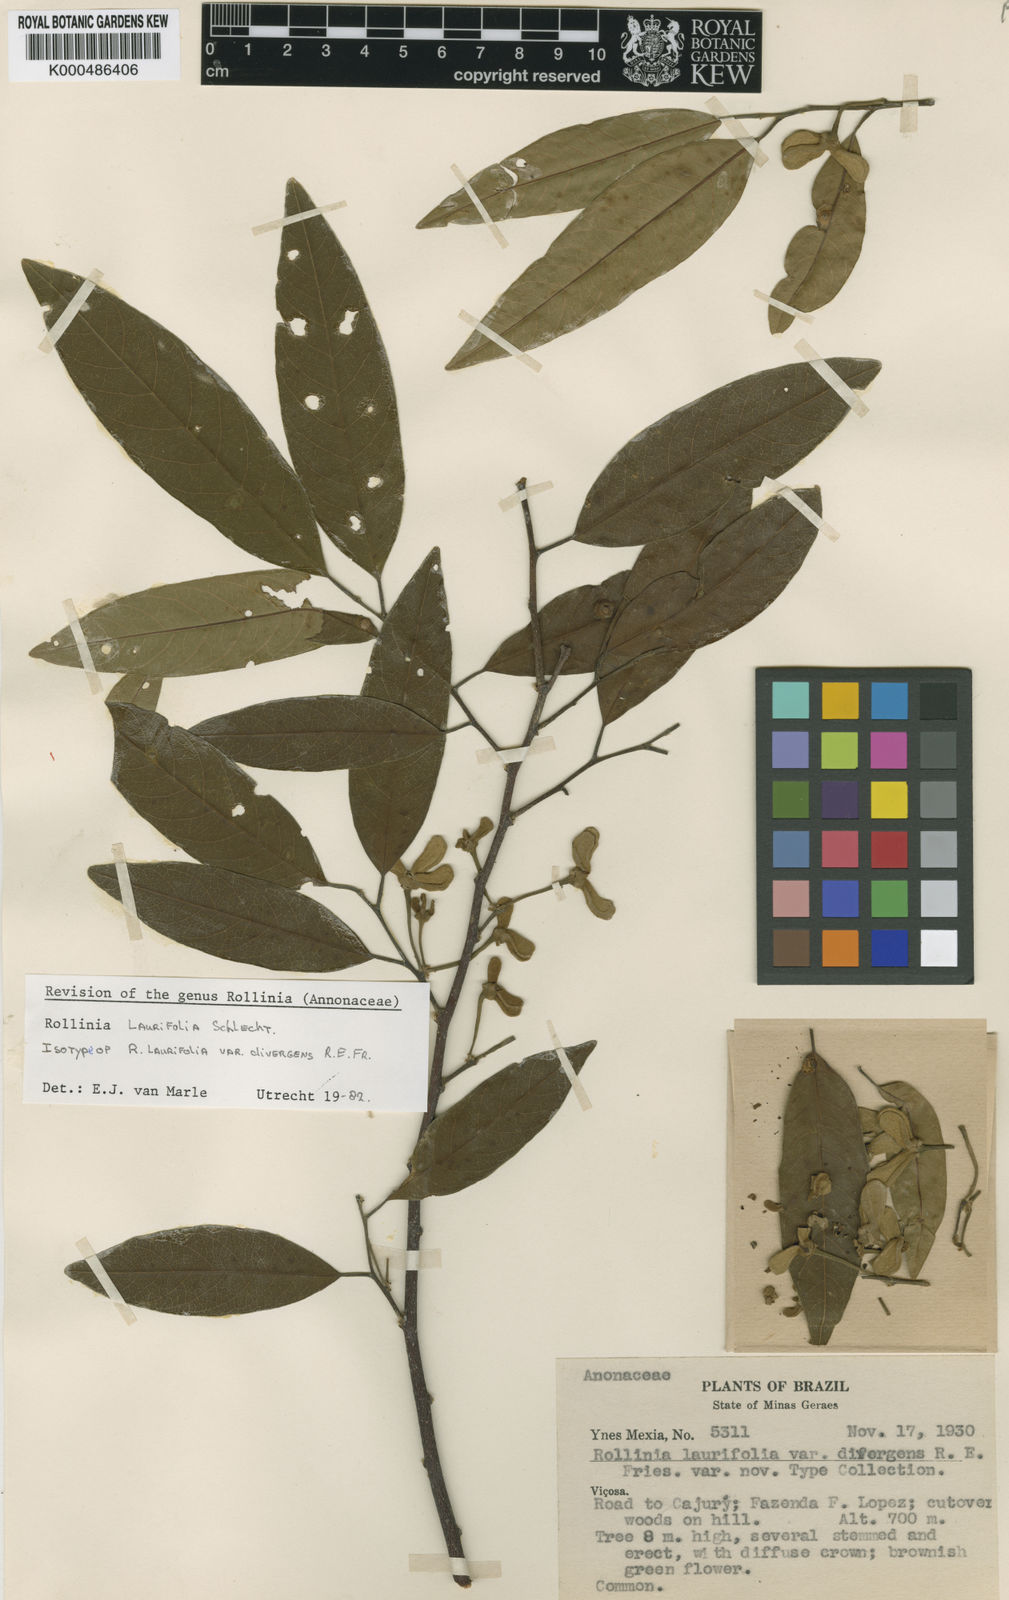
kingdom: Plantae
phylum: Tracheophyta
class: Magnoliopsida
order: Magnoliales
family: Annonaceae
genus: Annona
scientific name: Annona neolaurifolia
